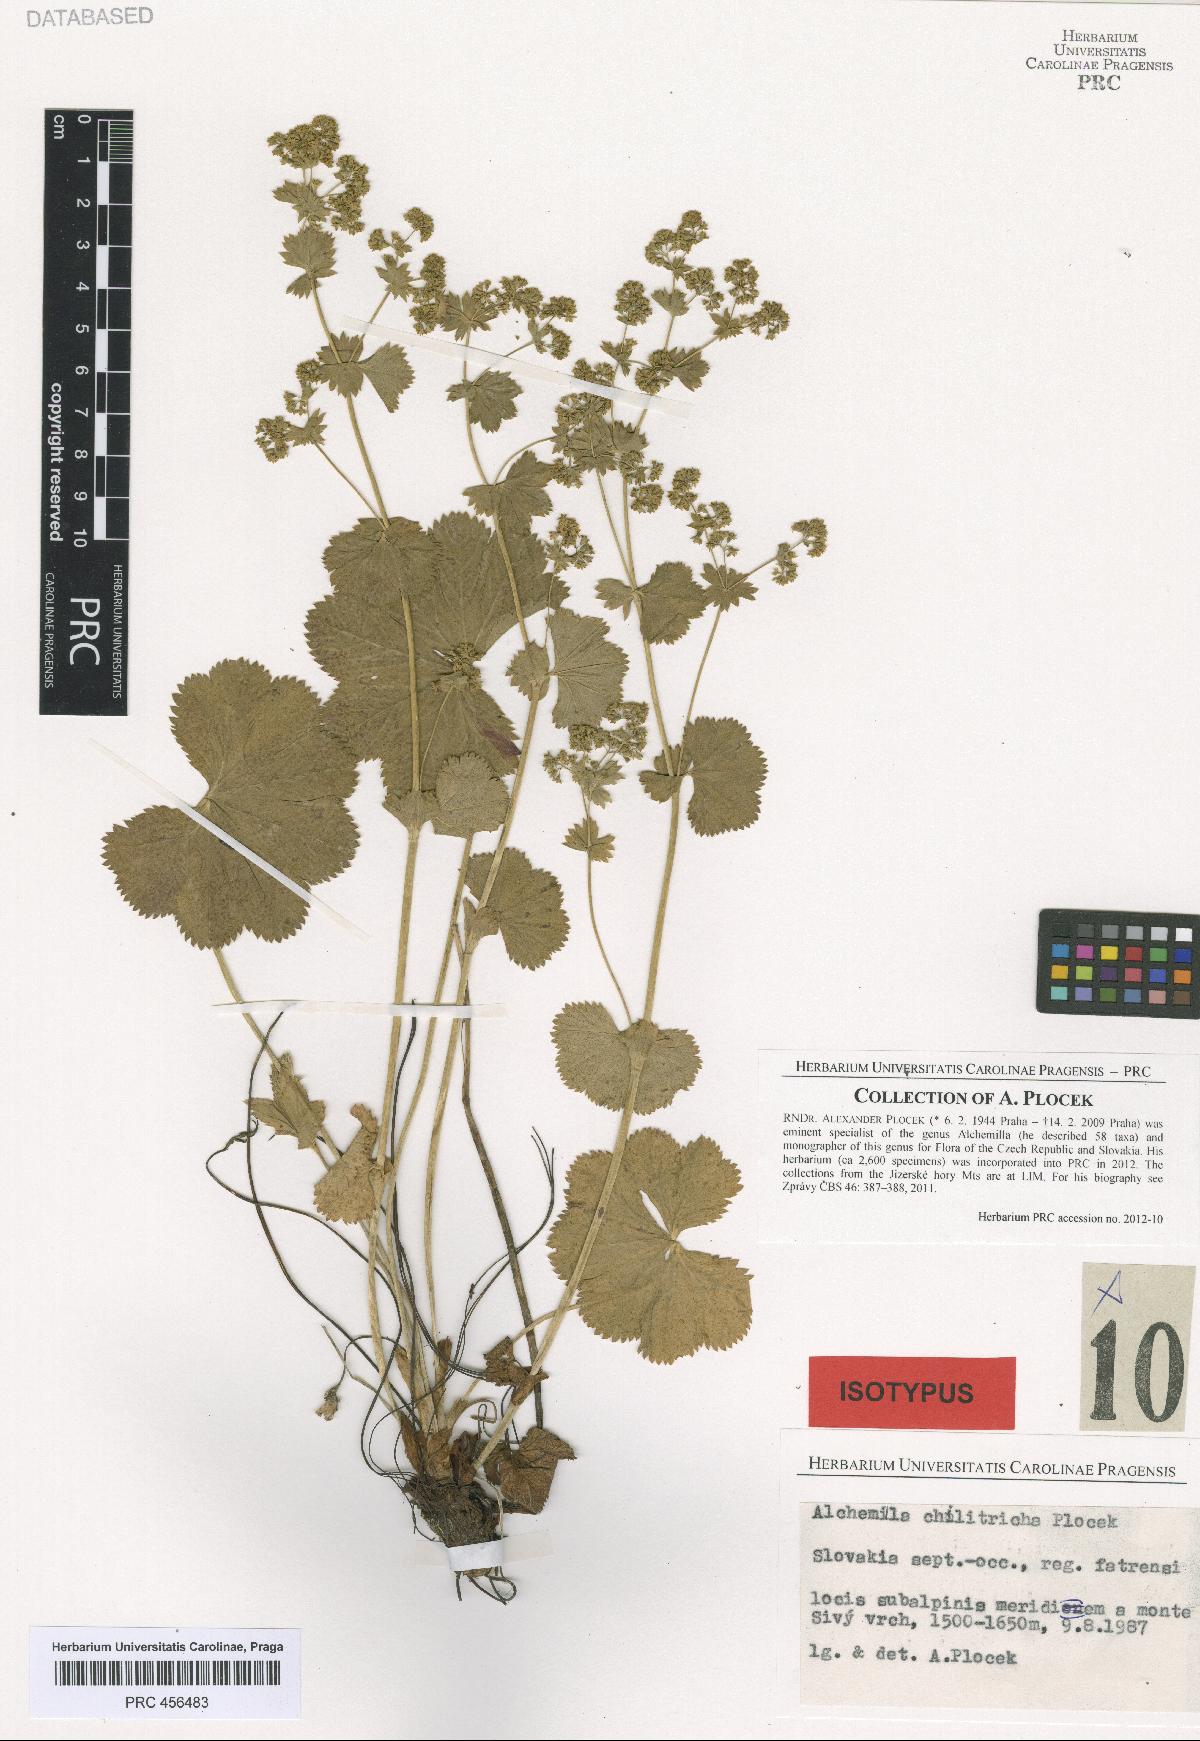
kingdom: Plantae
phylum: Tracheophyta
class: Magnoliopsida
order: Rosales
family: Rosaceae
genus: Alchemilla
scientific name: Alchemilla chilitricha
